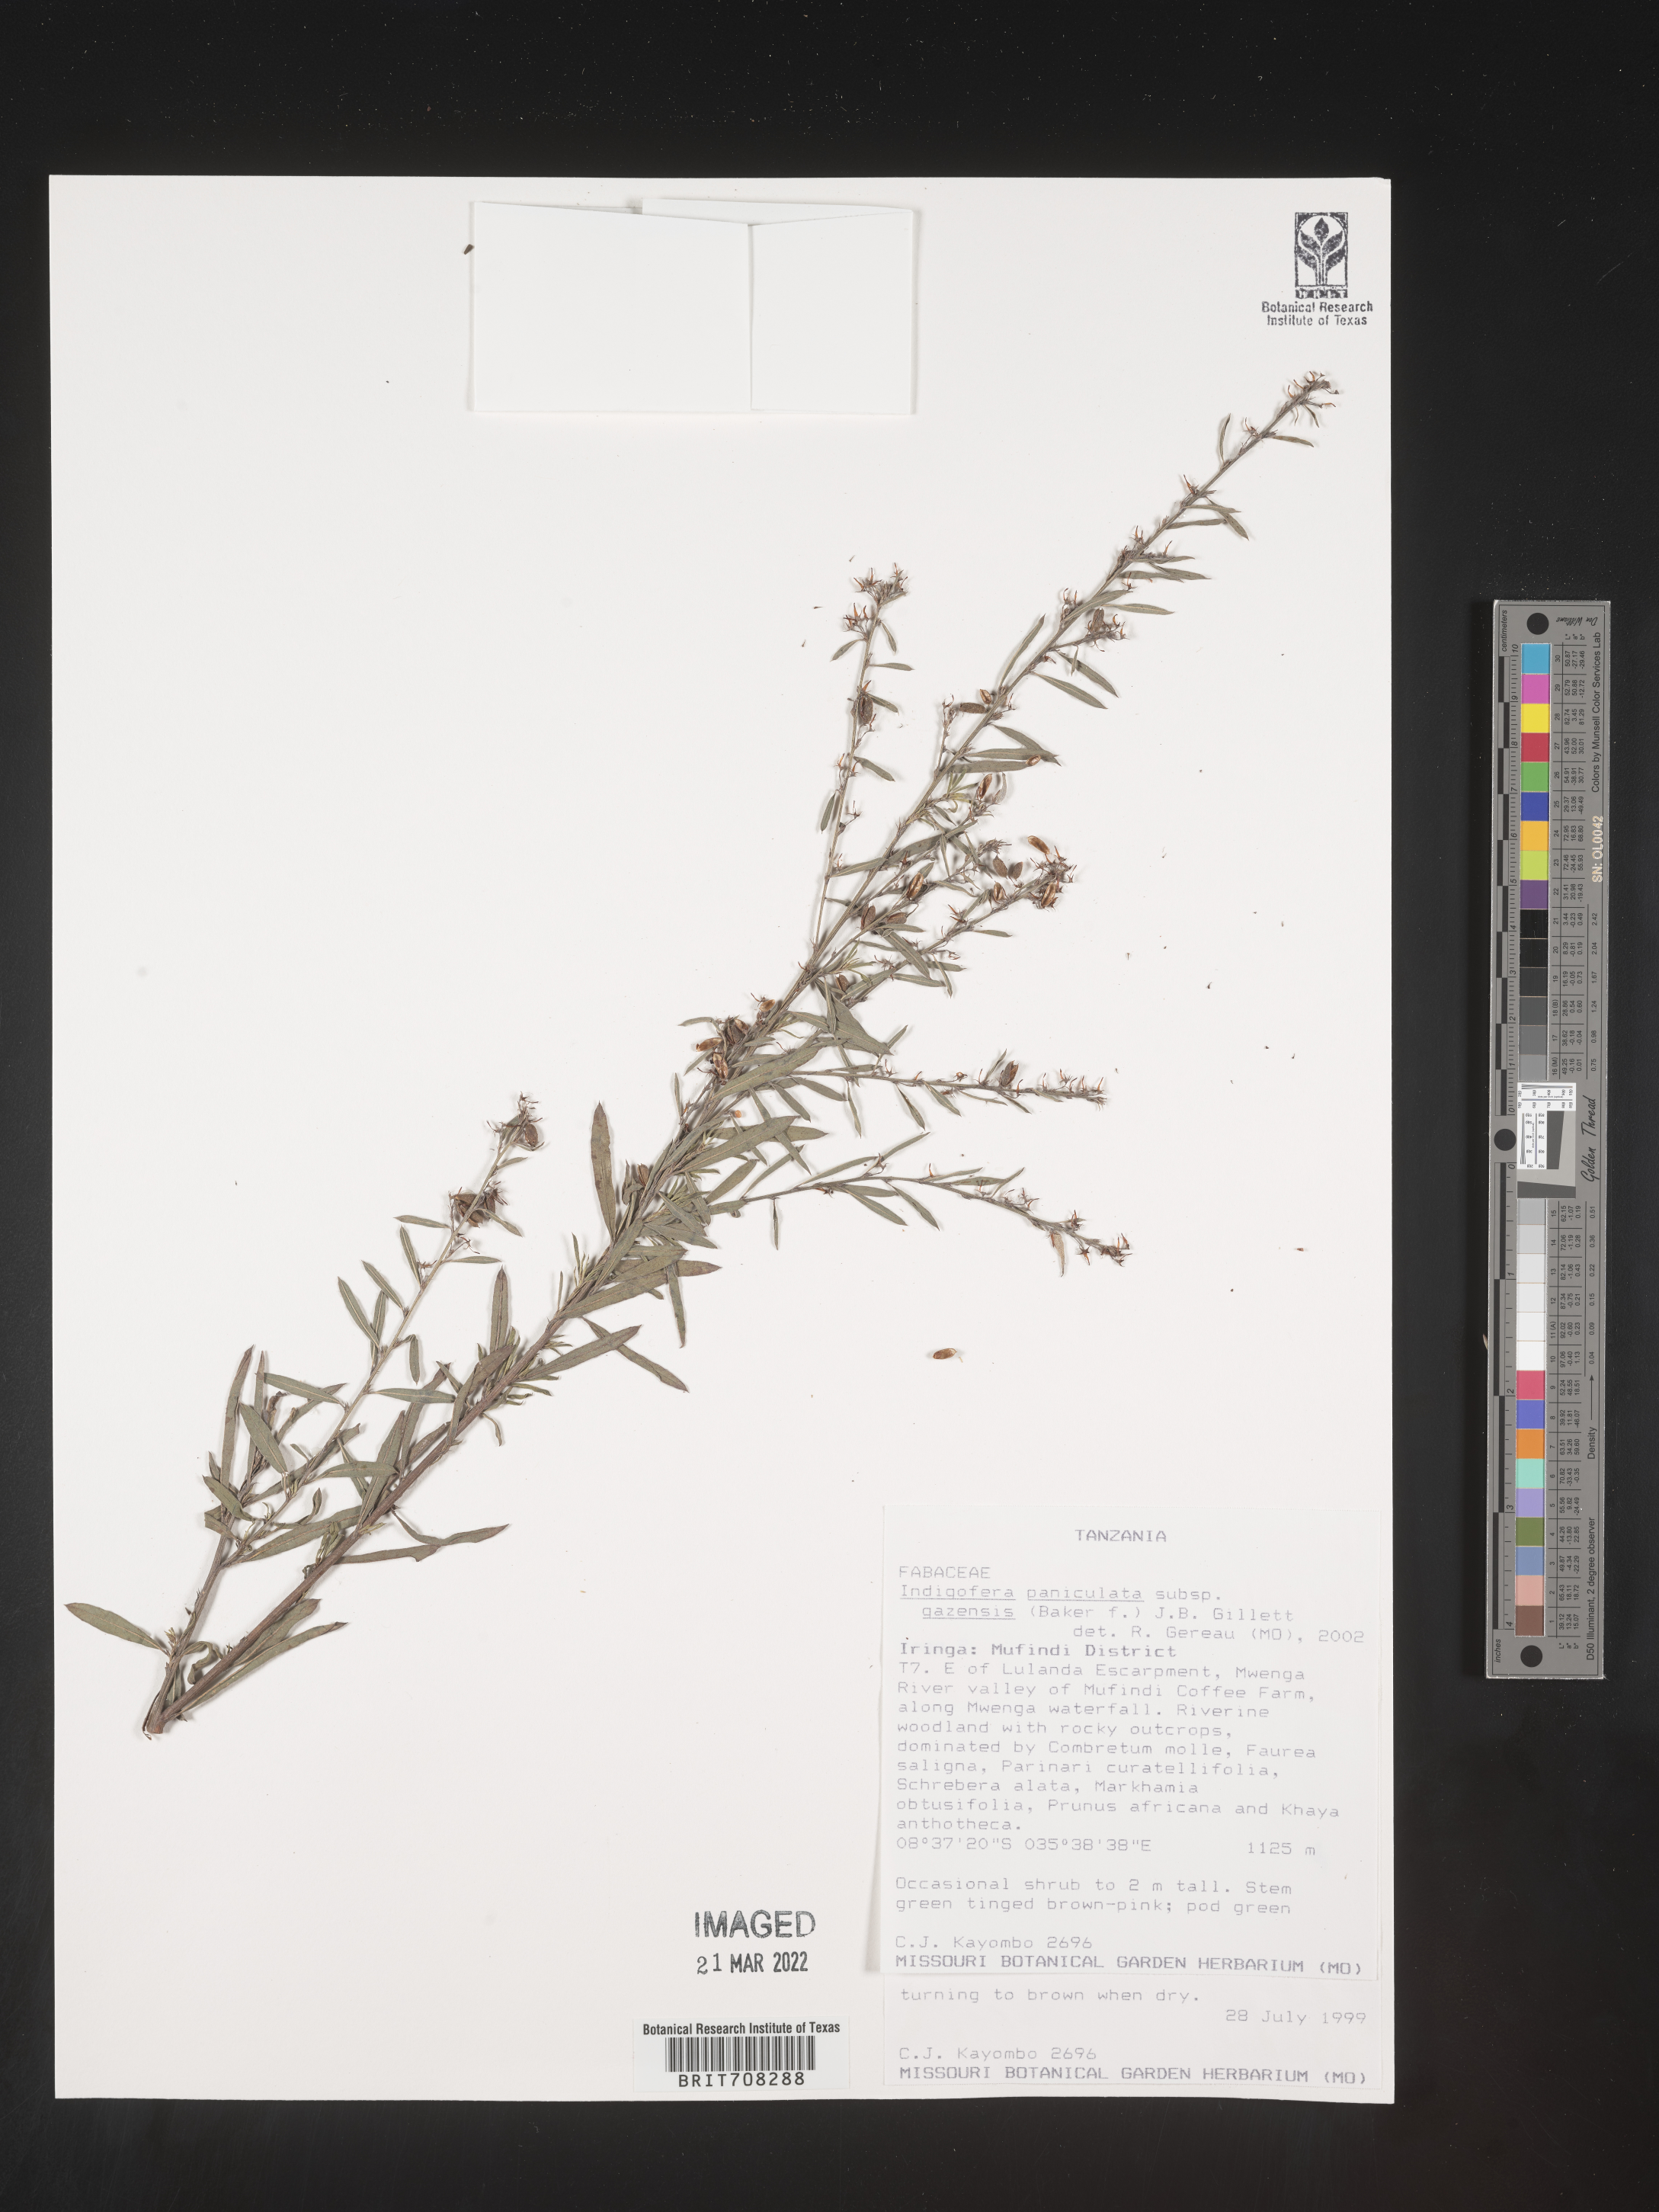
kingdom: Plantae
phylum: Tracheophyta
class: Magnoliopsida
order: Fabales
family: Fabaceae
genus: Indigofera
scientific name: Indigofera
